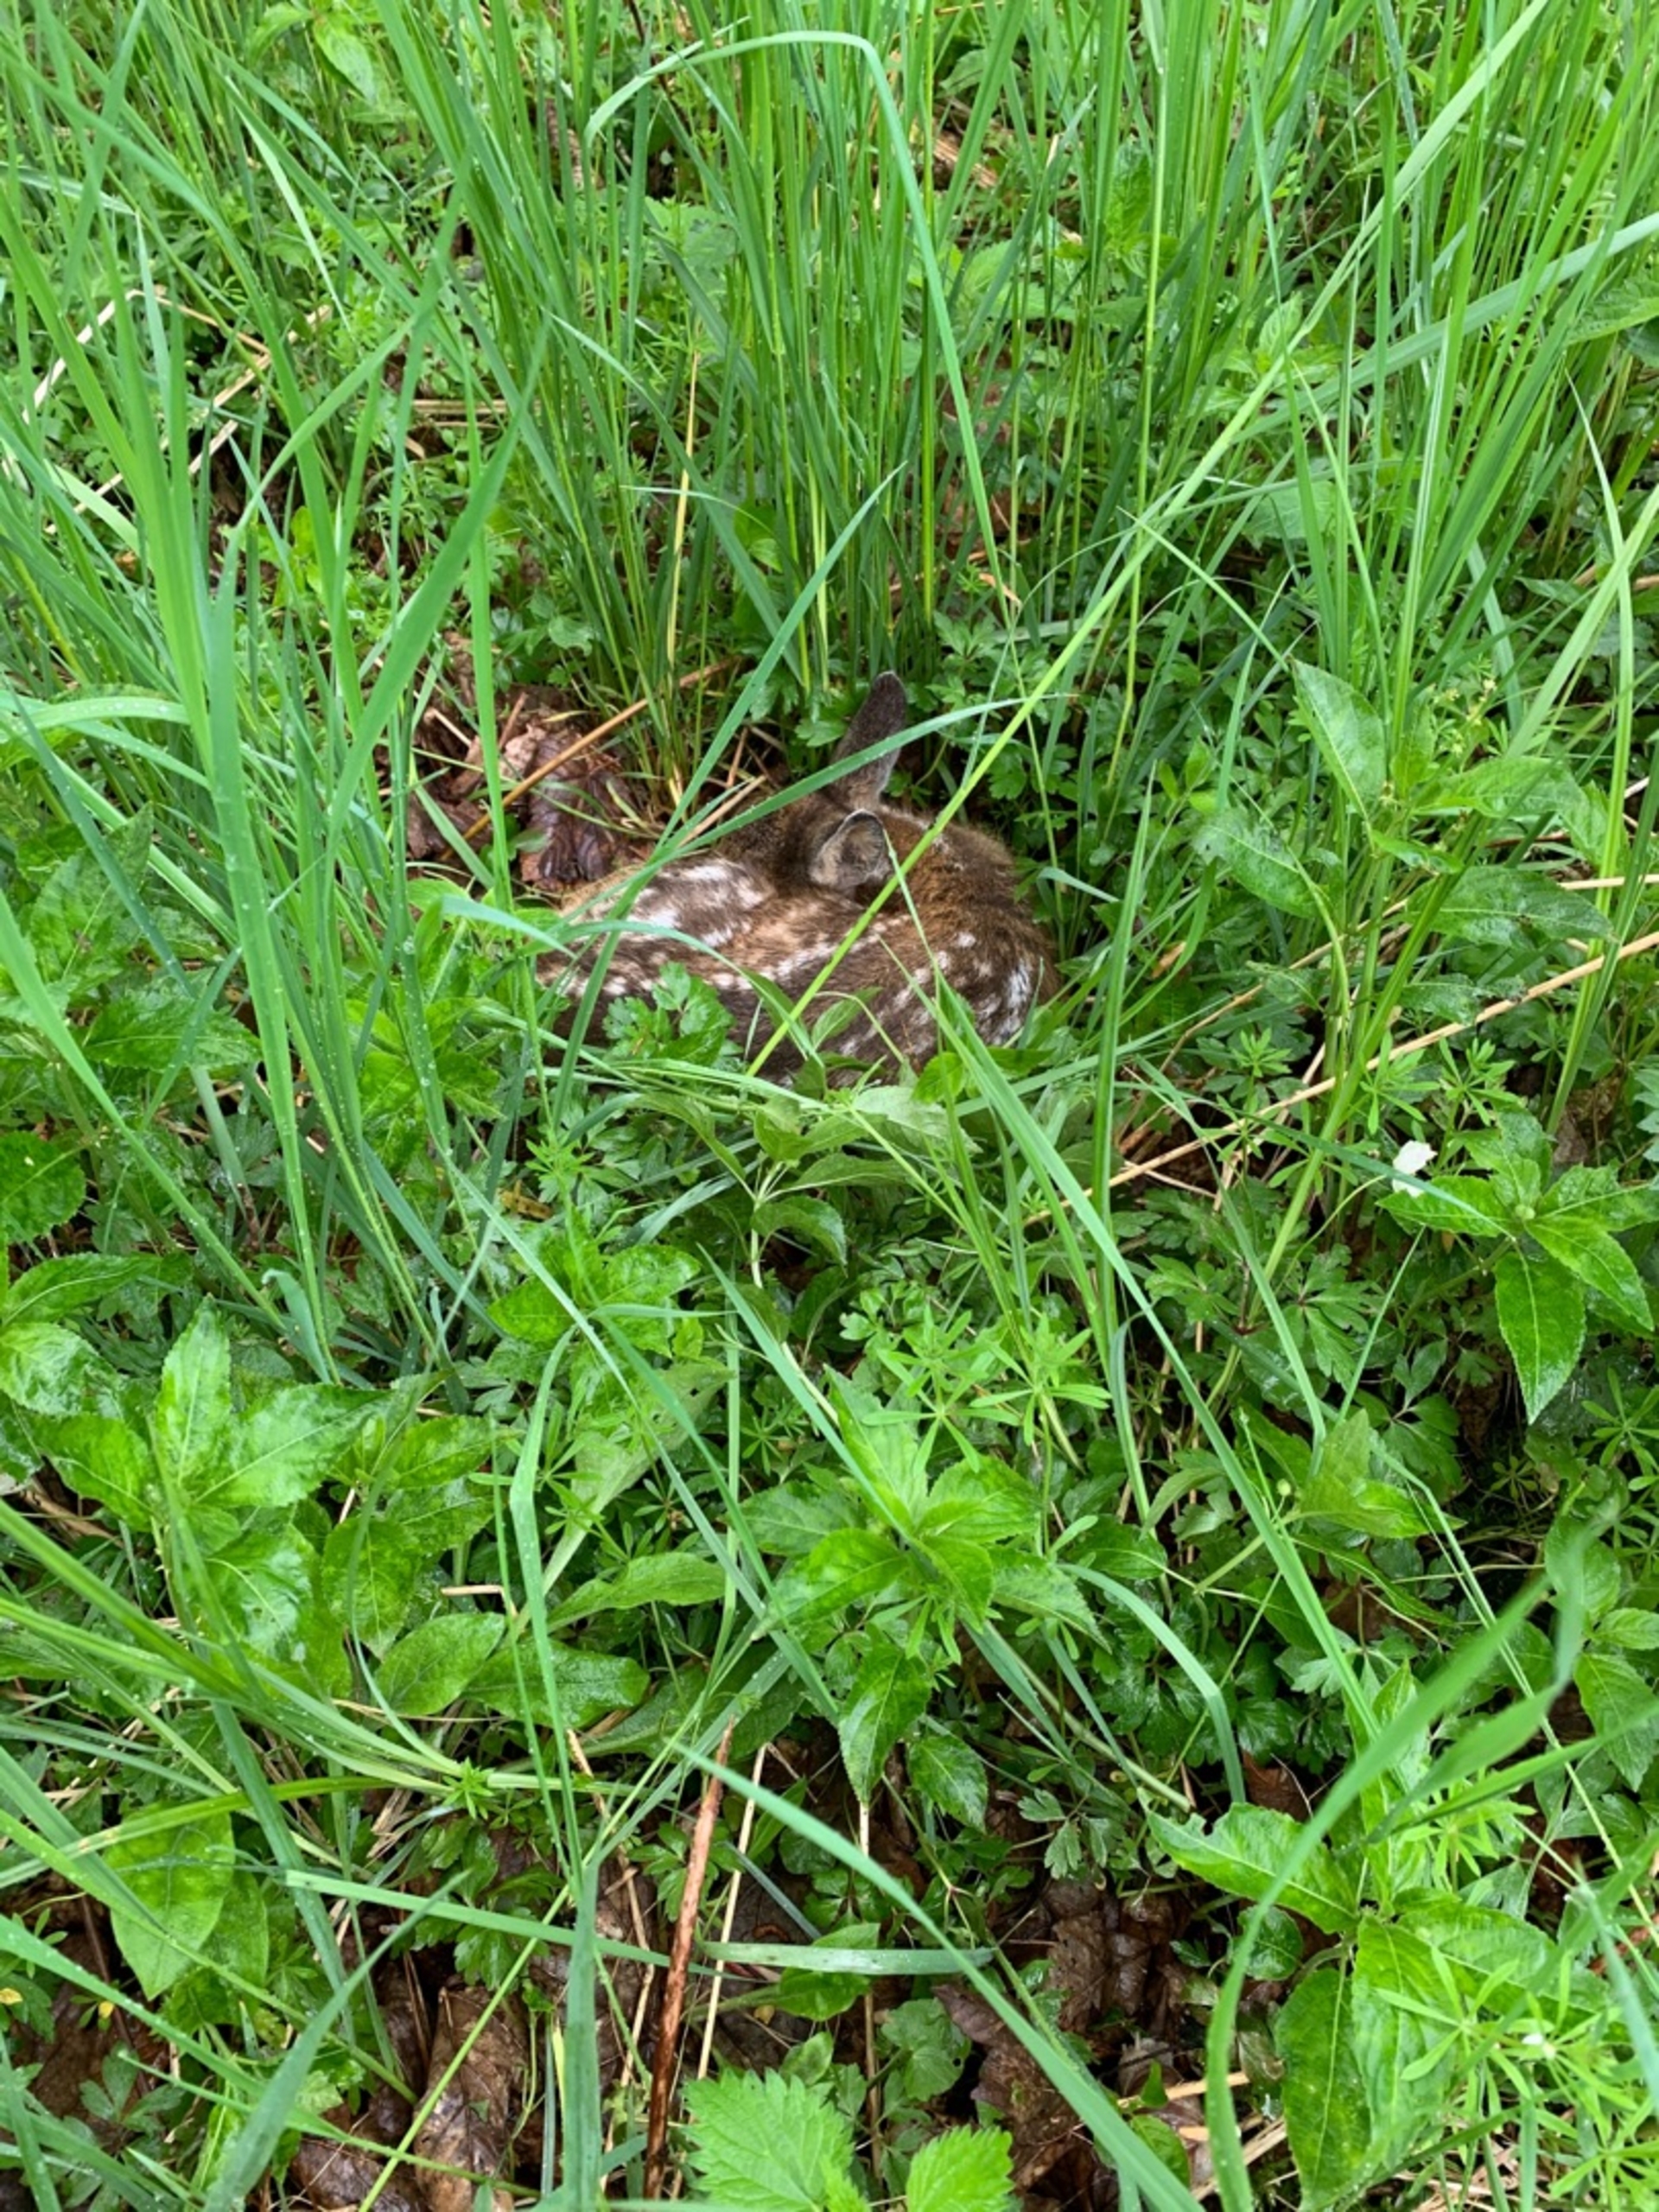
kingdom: Animalia
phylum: Chordata
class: Mammalia
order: Artiodactyla
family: Cervidae
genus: Capreolus
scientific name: Capreolus capreolus
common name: Rådyr
